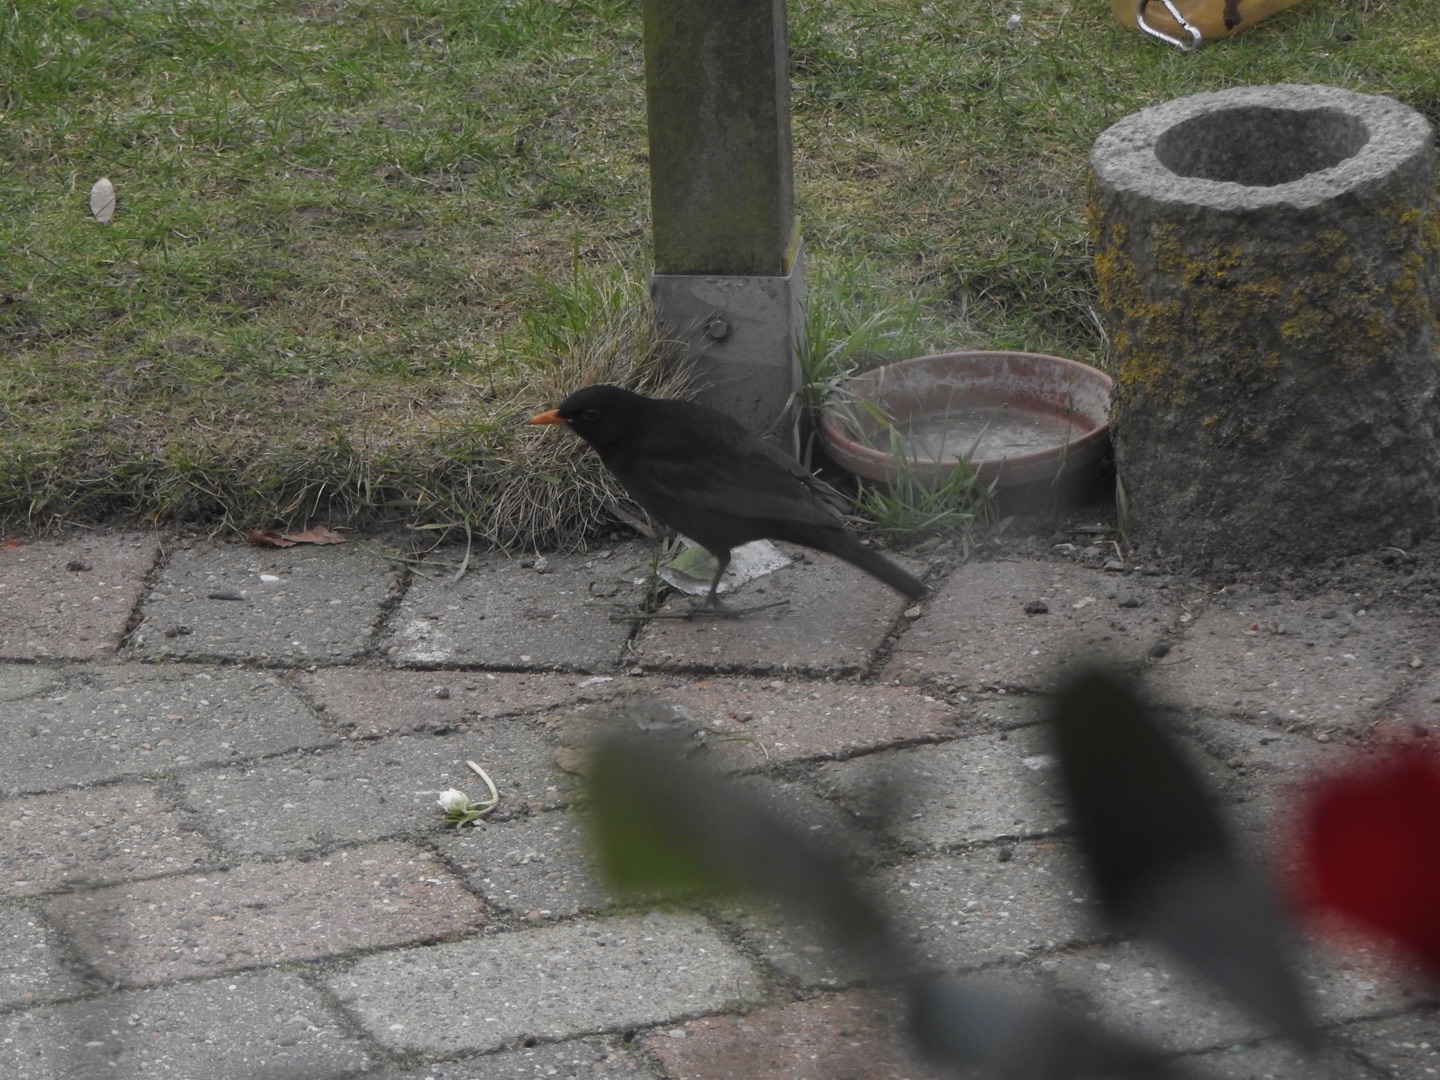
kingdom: Animalia
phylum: Chordata
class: Aves
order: Passeriformes
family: Turdidae
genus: Turdus
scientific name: Turdus merula
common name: Solsort
